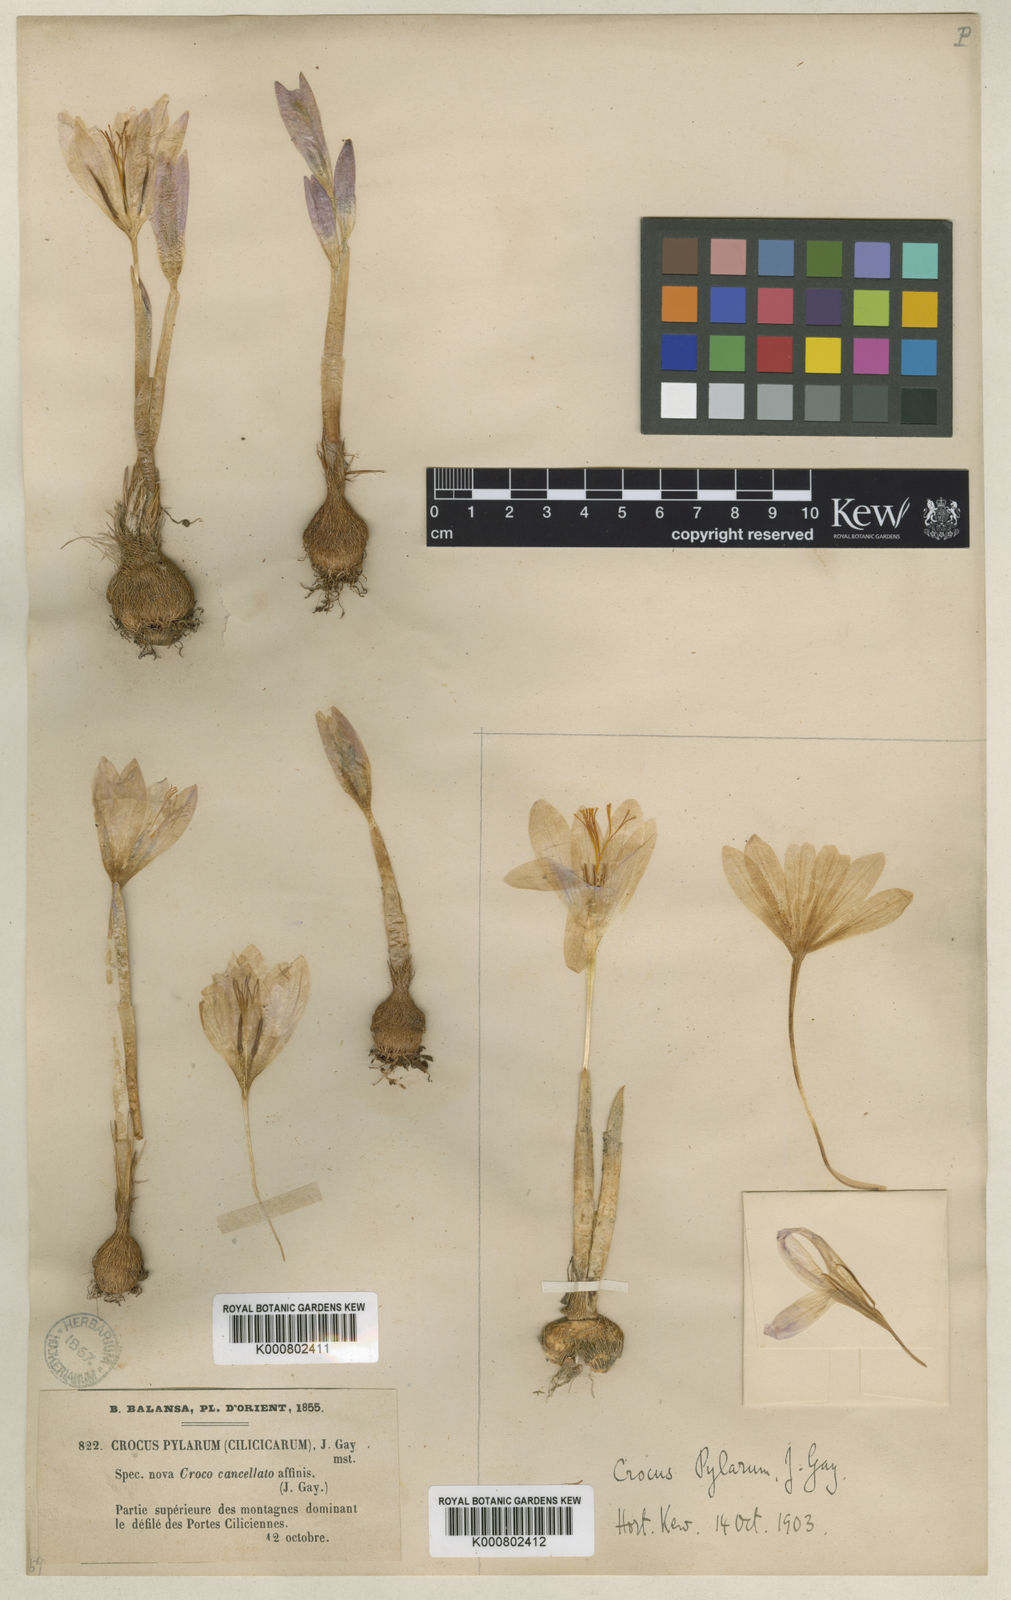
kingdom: Plantae
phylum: Tracheophyta
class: Liliopsida
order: Asparagales
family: Iridaceae
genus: Crocus
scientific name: Crocus cancellatus
